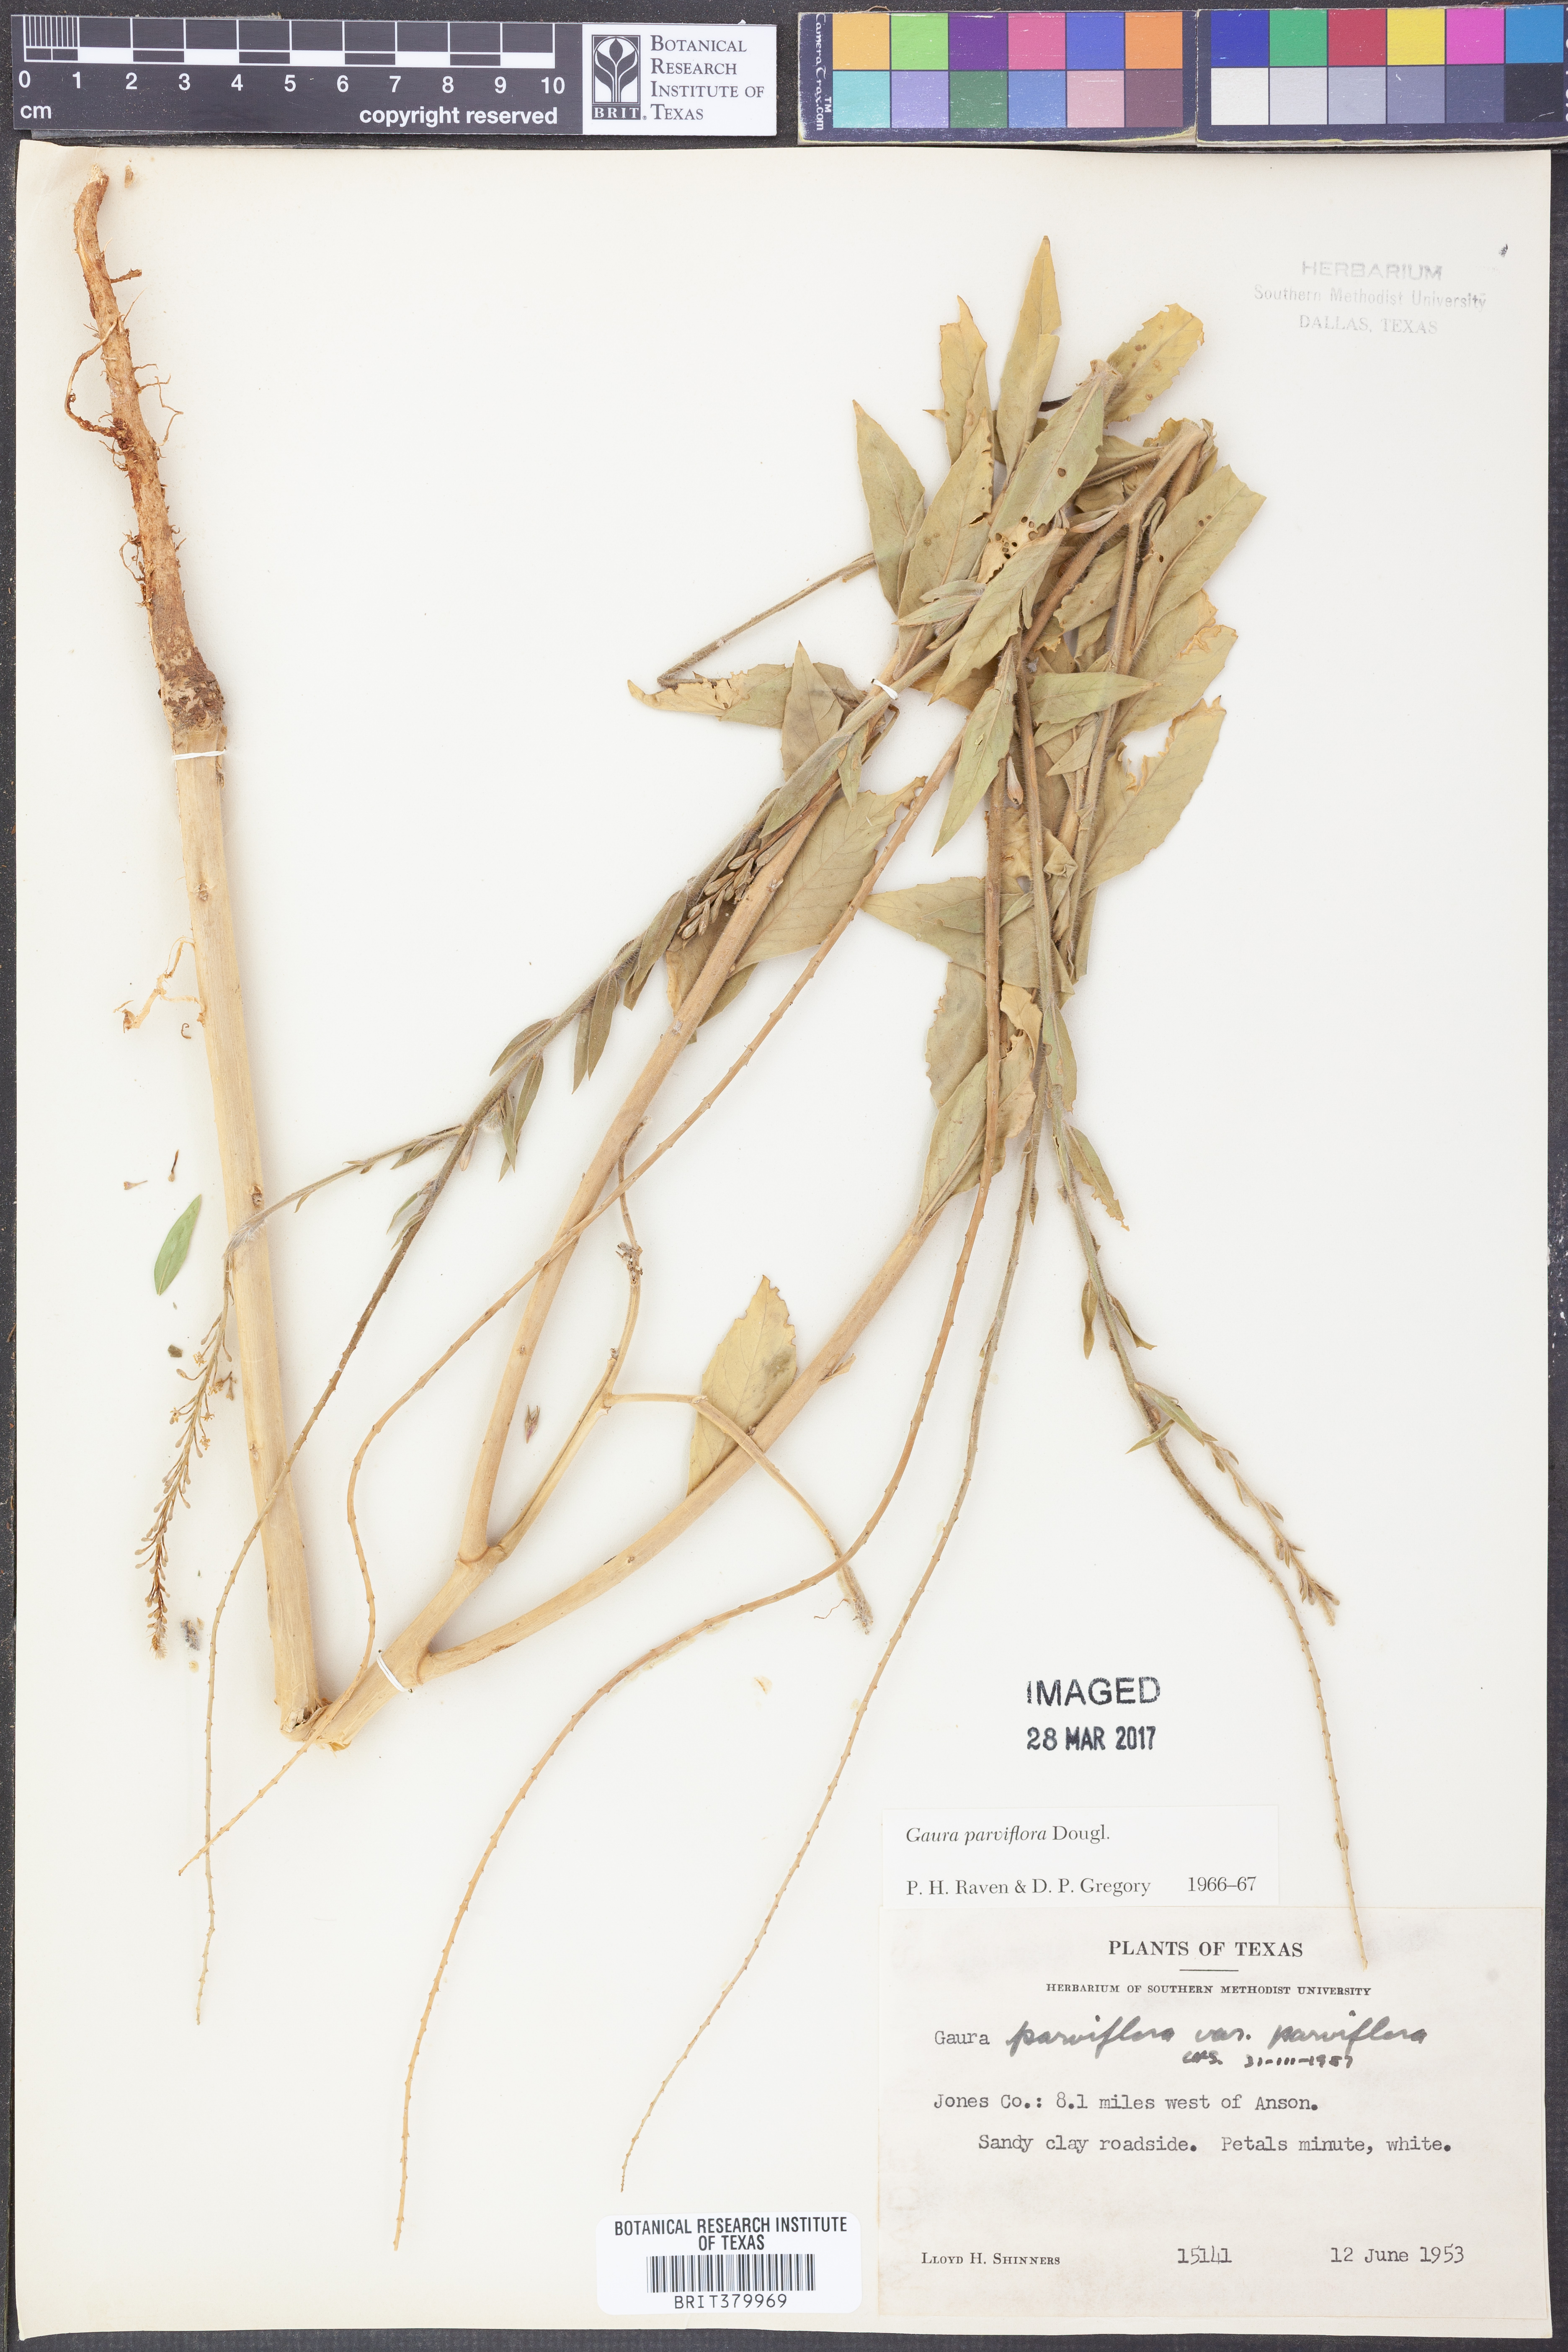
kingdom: Plantae
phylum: Tracheophyta
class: Magnoliopsida
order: Myrtales
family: Onagraceae
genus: Oenothera
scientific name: Oenothera curtiflora
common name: Velvetweed
